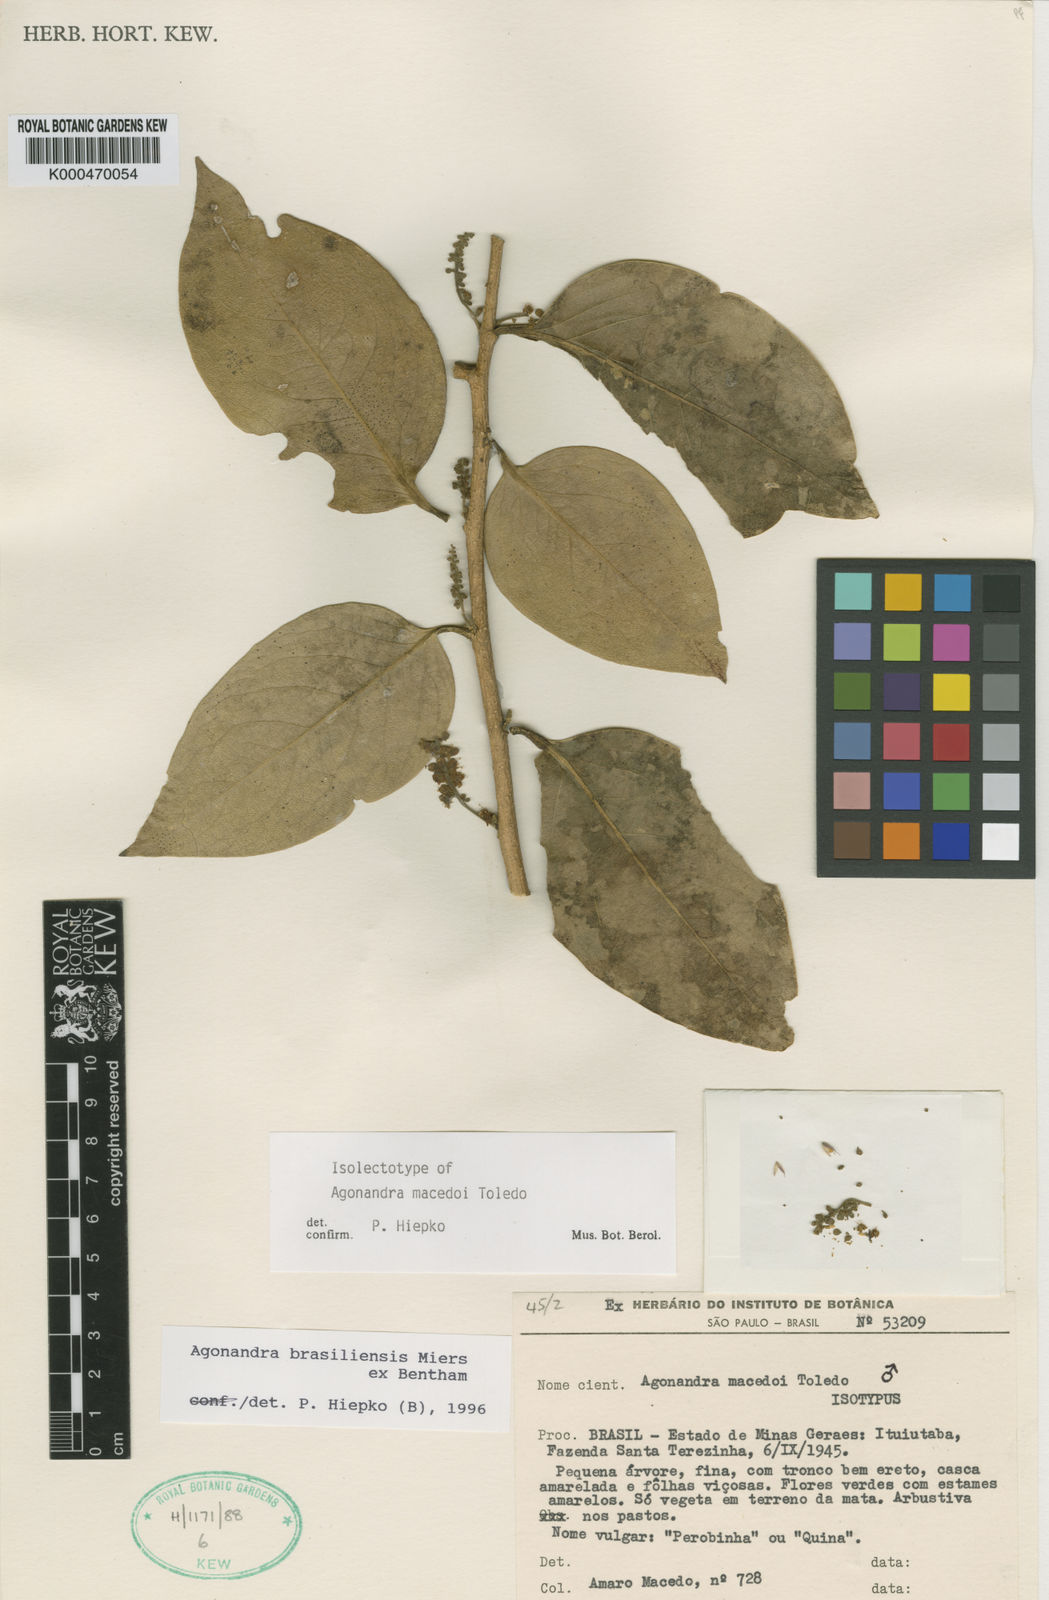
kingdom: Plantae
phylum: Tracheophyta
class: Magnoliopsida
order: Santalales
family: Opiliaceae
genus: Agonandra
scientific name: Agonandra brasiliensis
